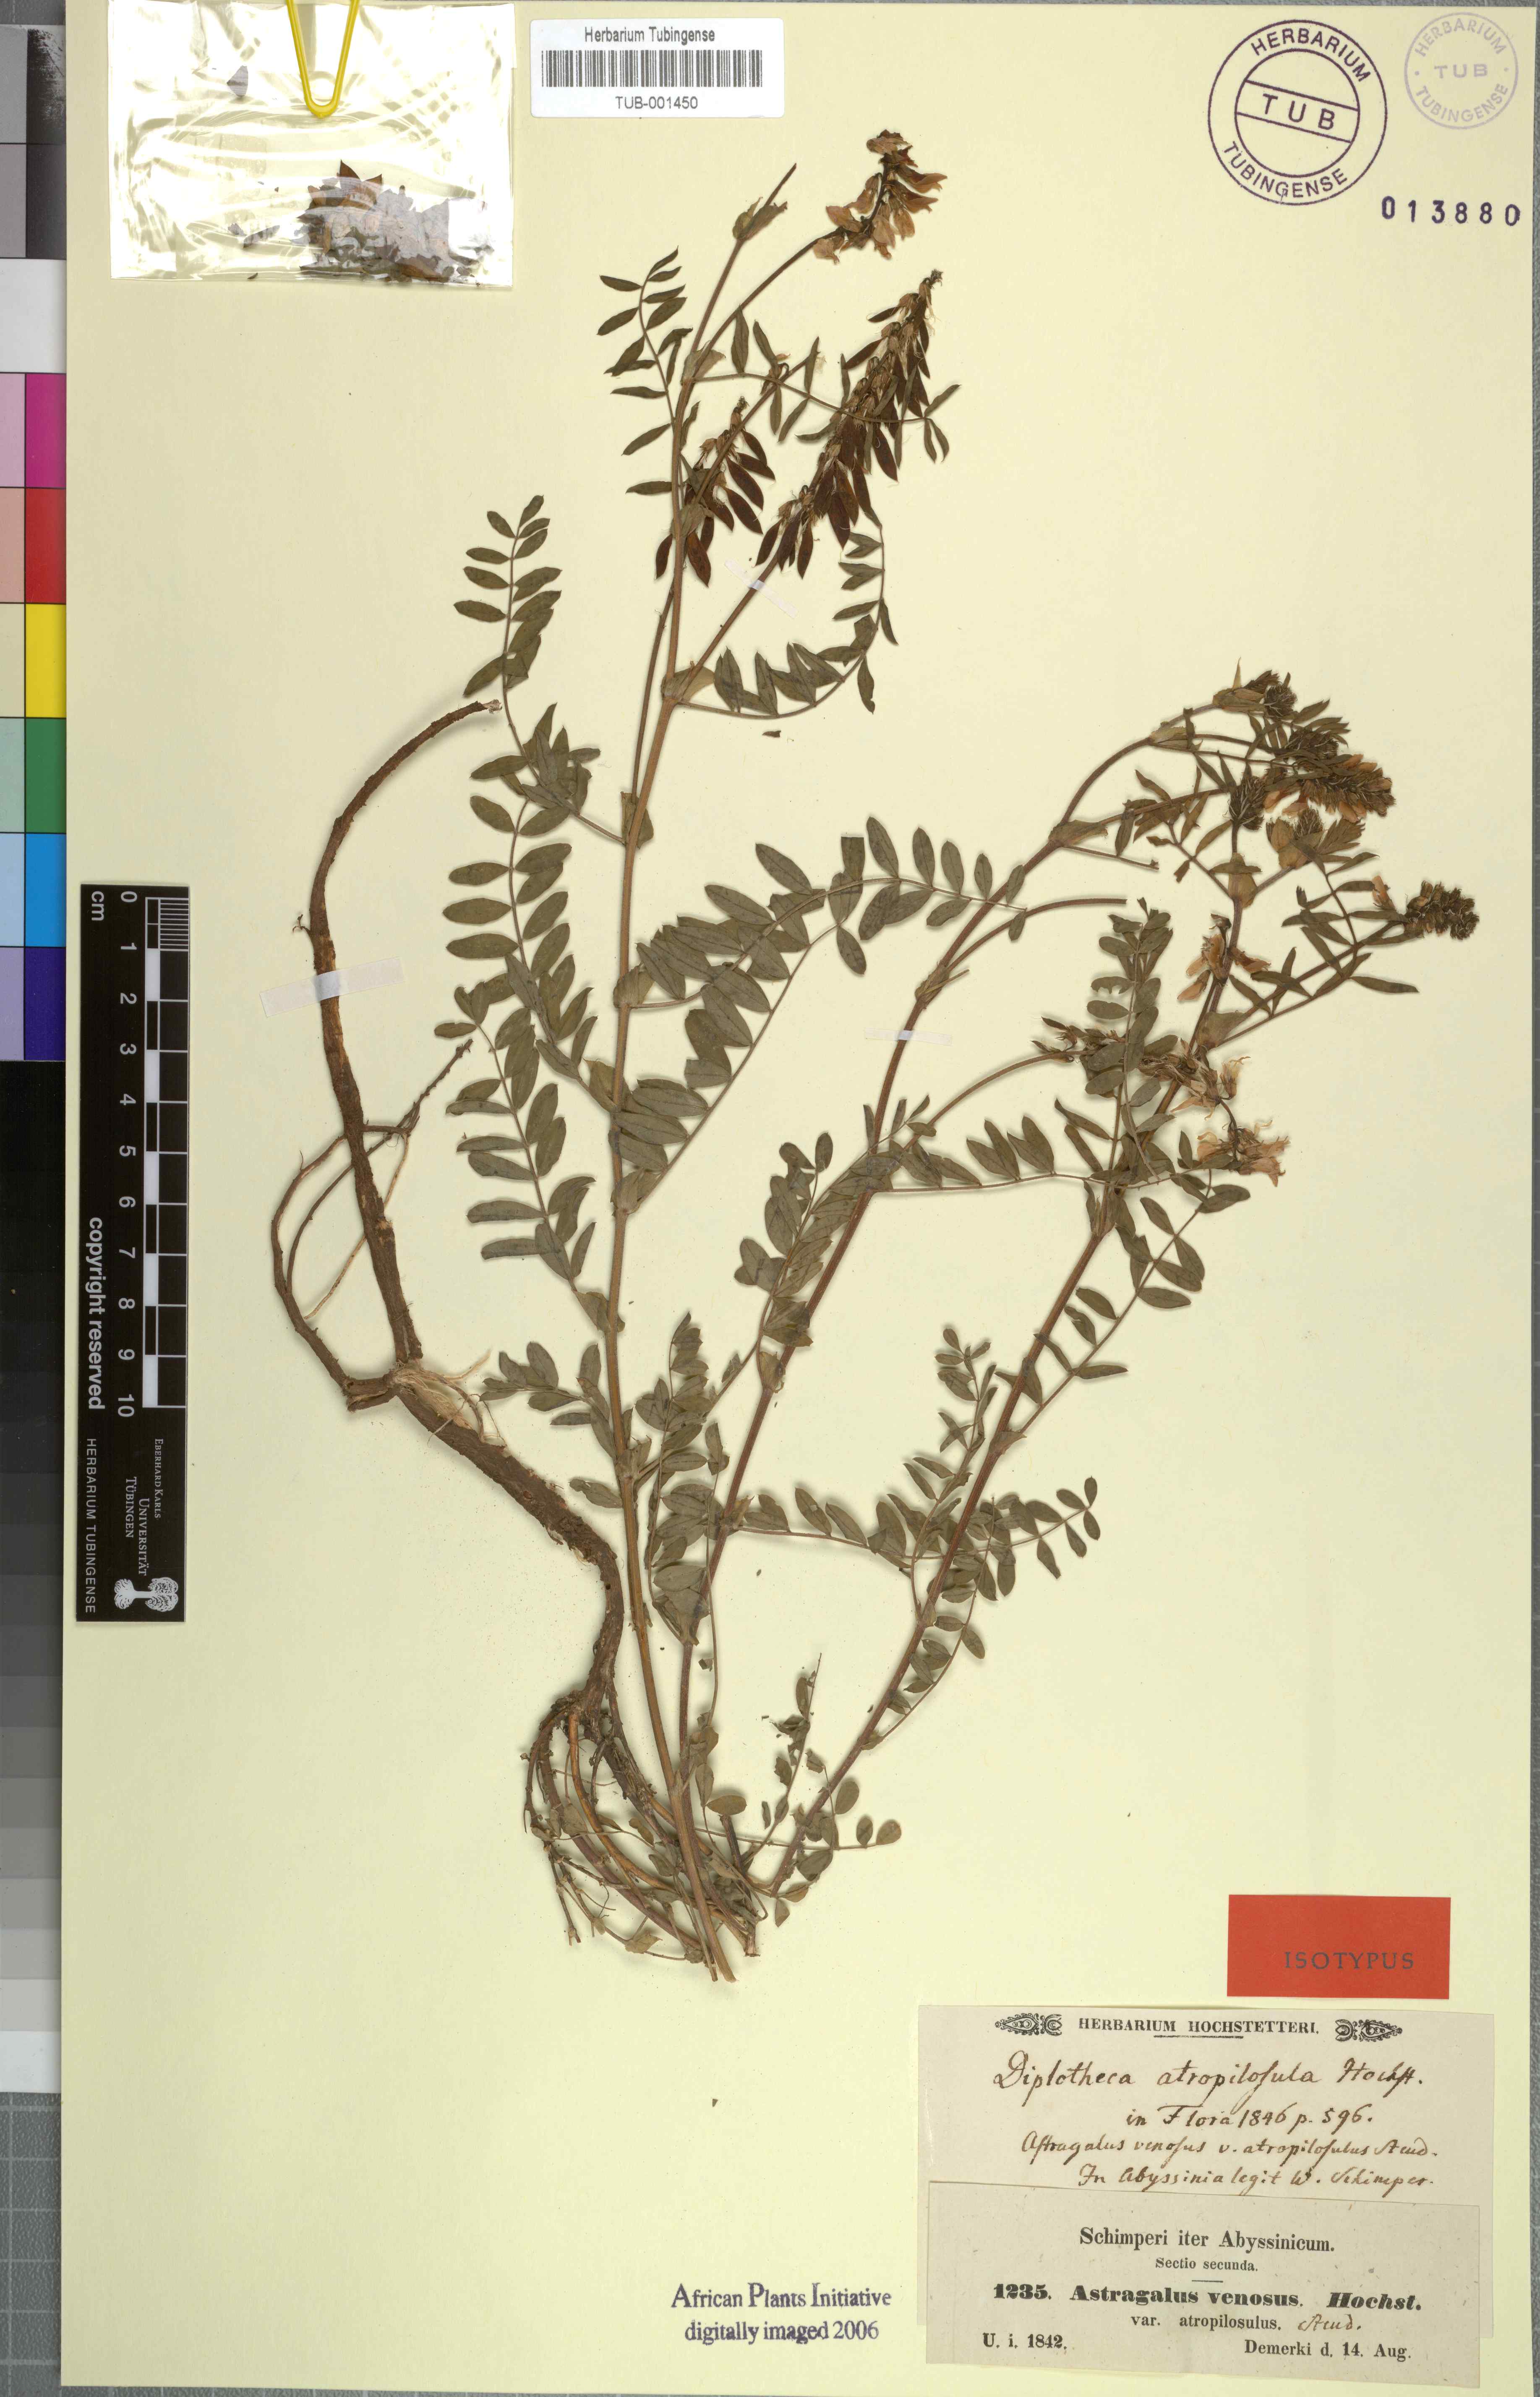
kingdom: Plantae
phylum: Tracheophyta
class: Magnoliopsida
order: Fabales
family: Fabaceae
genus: Astragalus
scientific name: Astragalus atropilosulus
